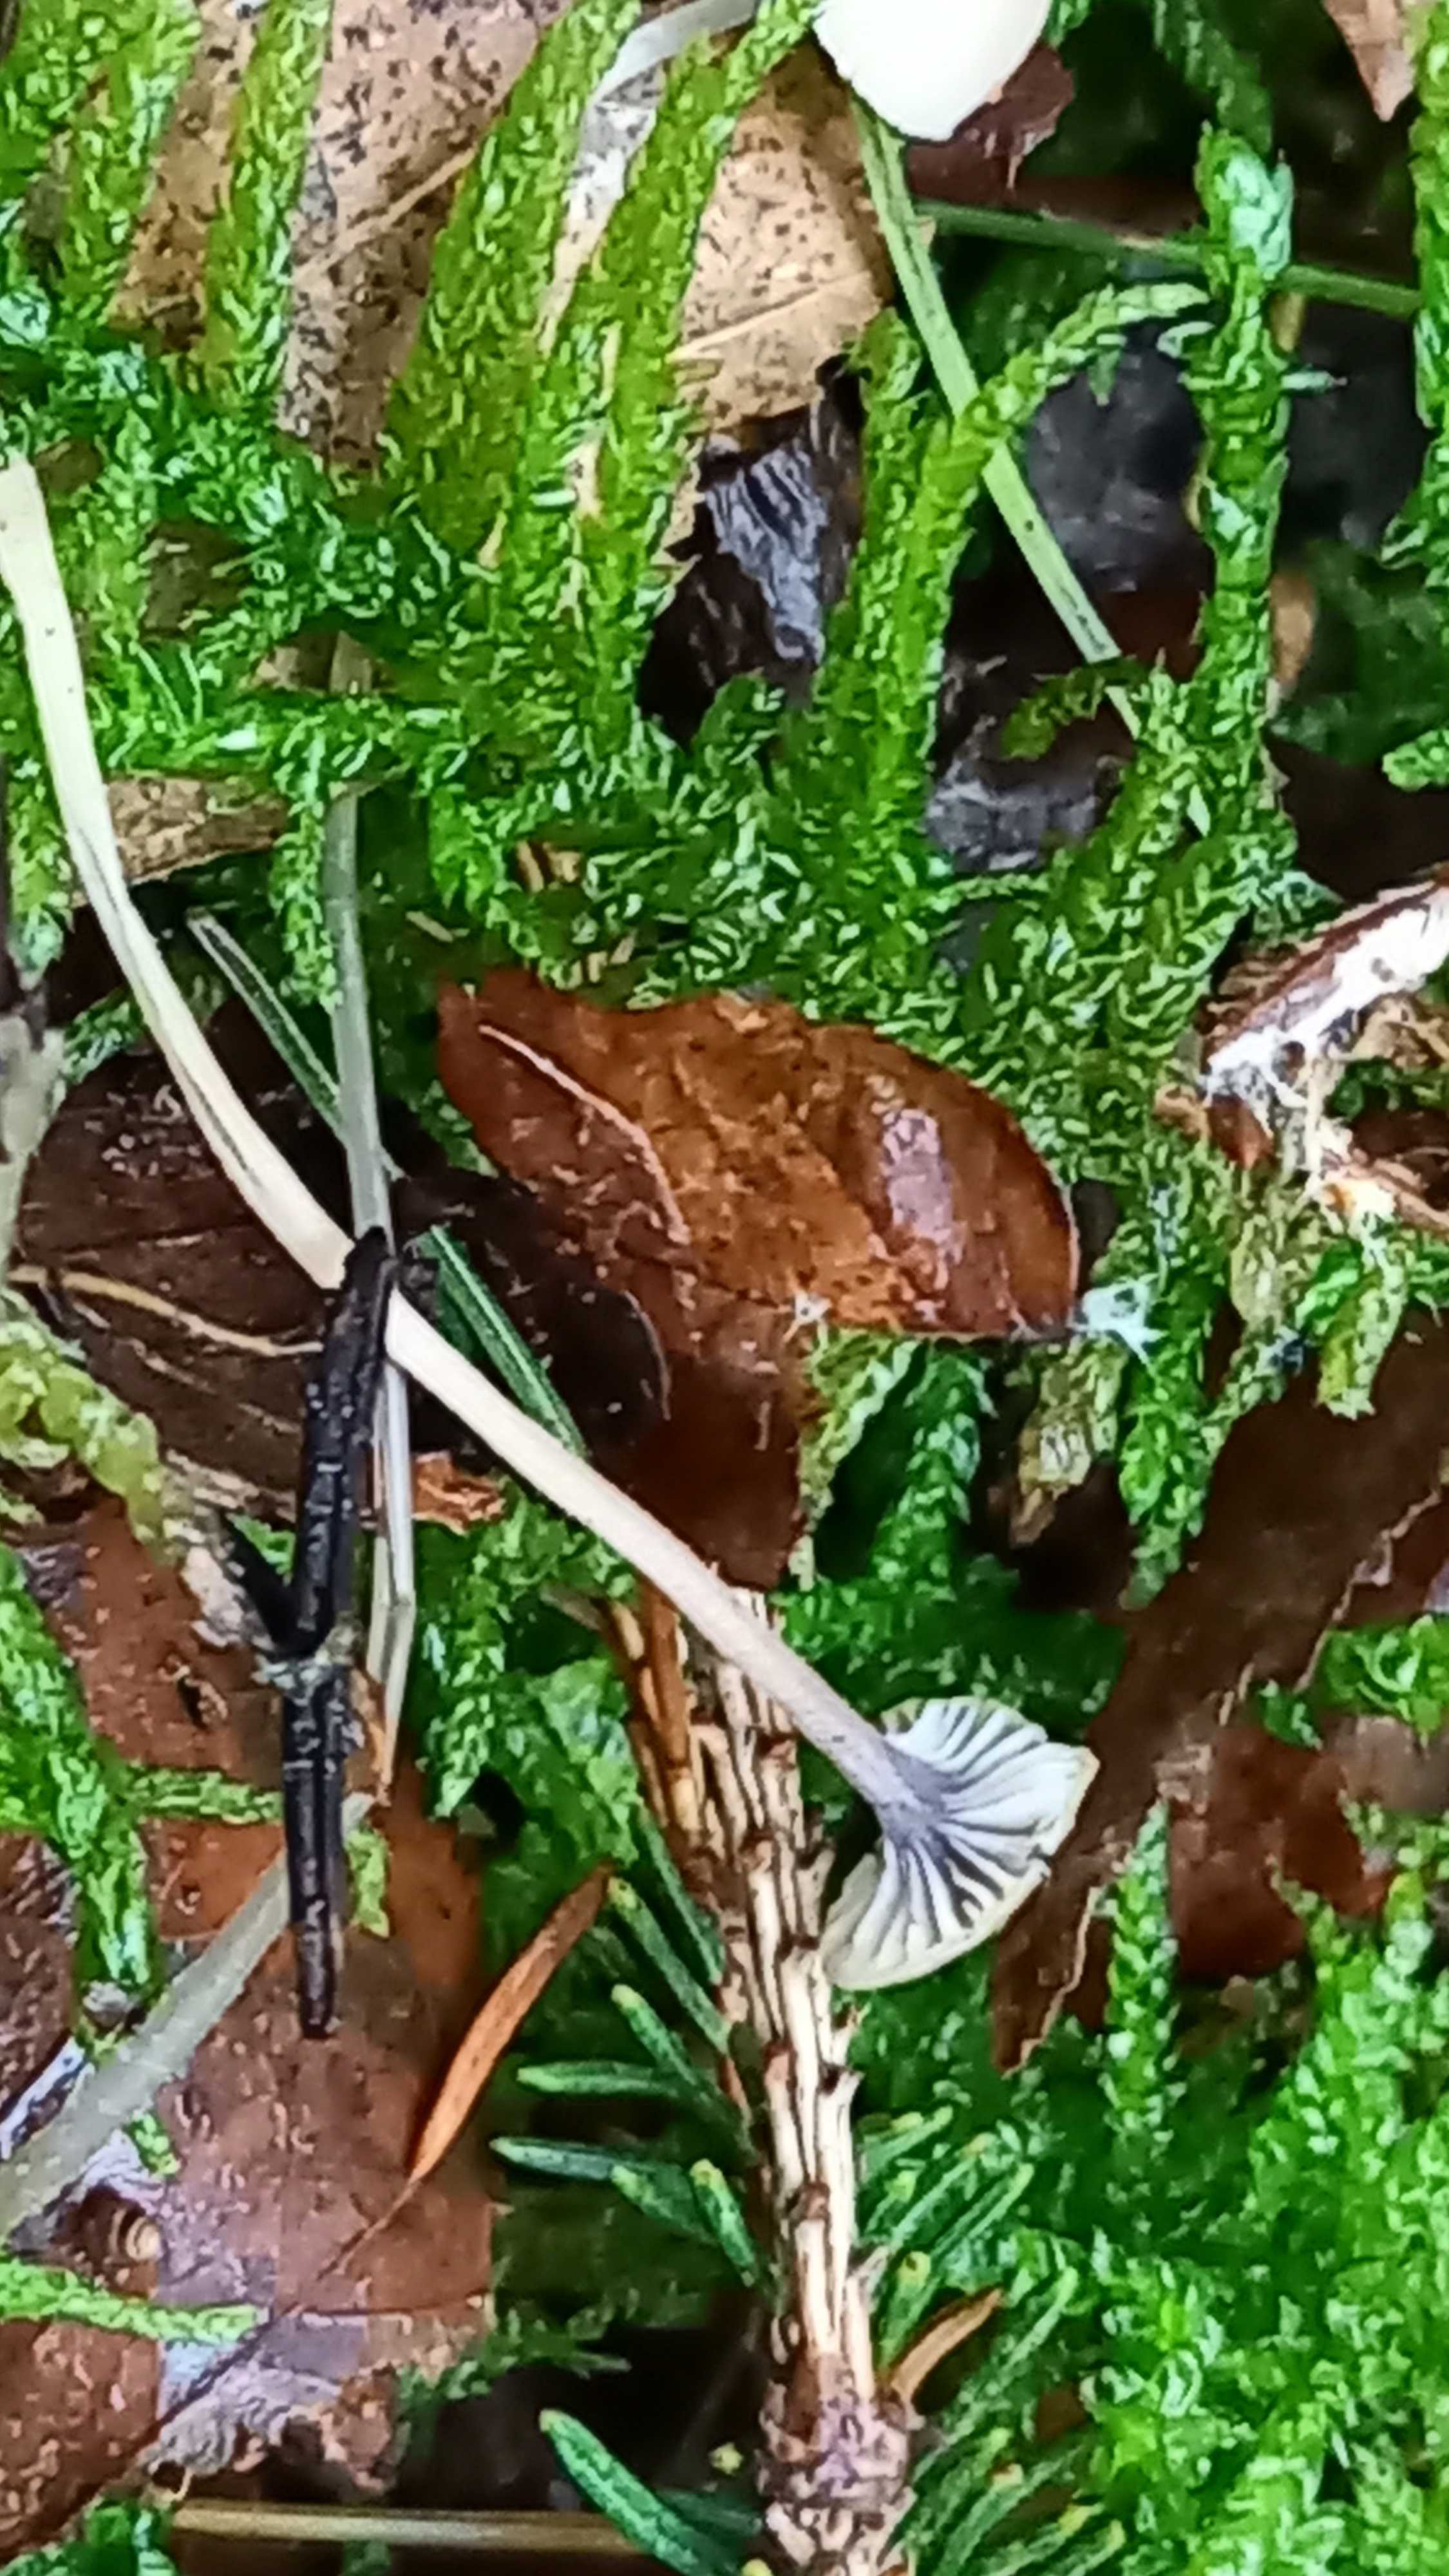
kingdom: Fungi
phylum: Basidiomycota
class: Agaricomycetes
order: Hymenochaetales
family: Rickenellaceae
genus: Rickenella
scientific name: Rickenella swartzii
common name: finstokket mosnavlehat
